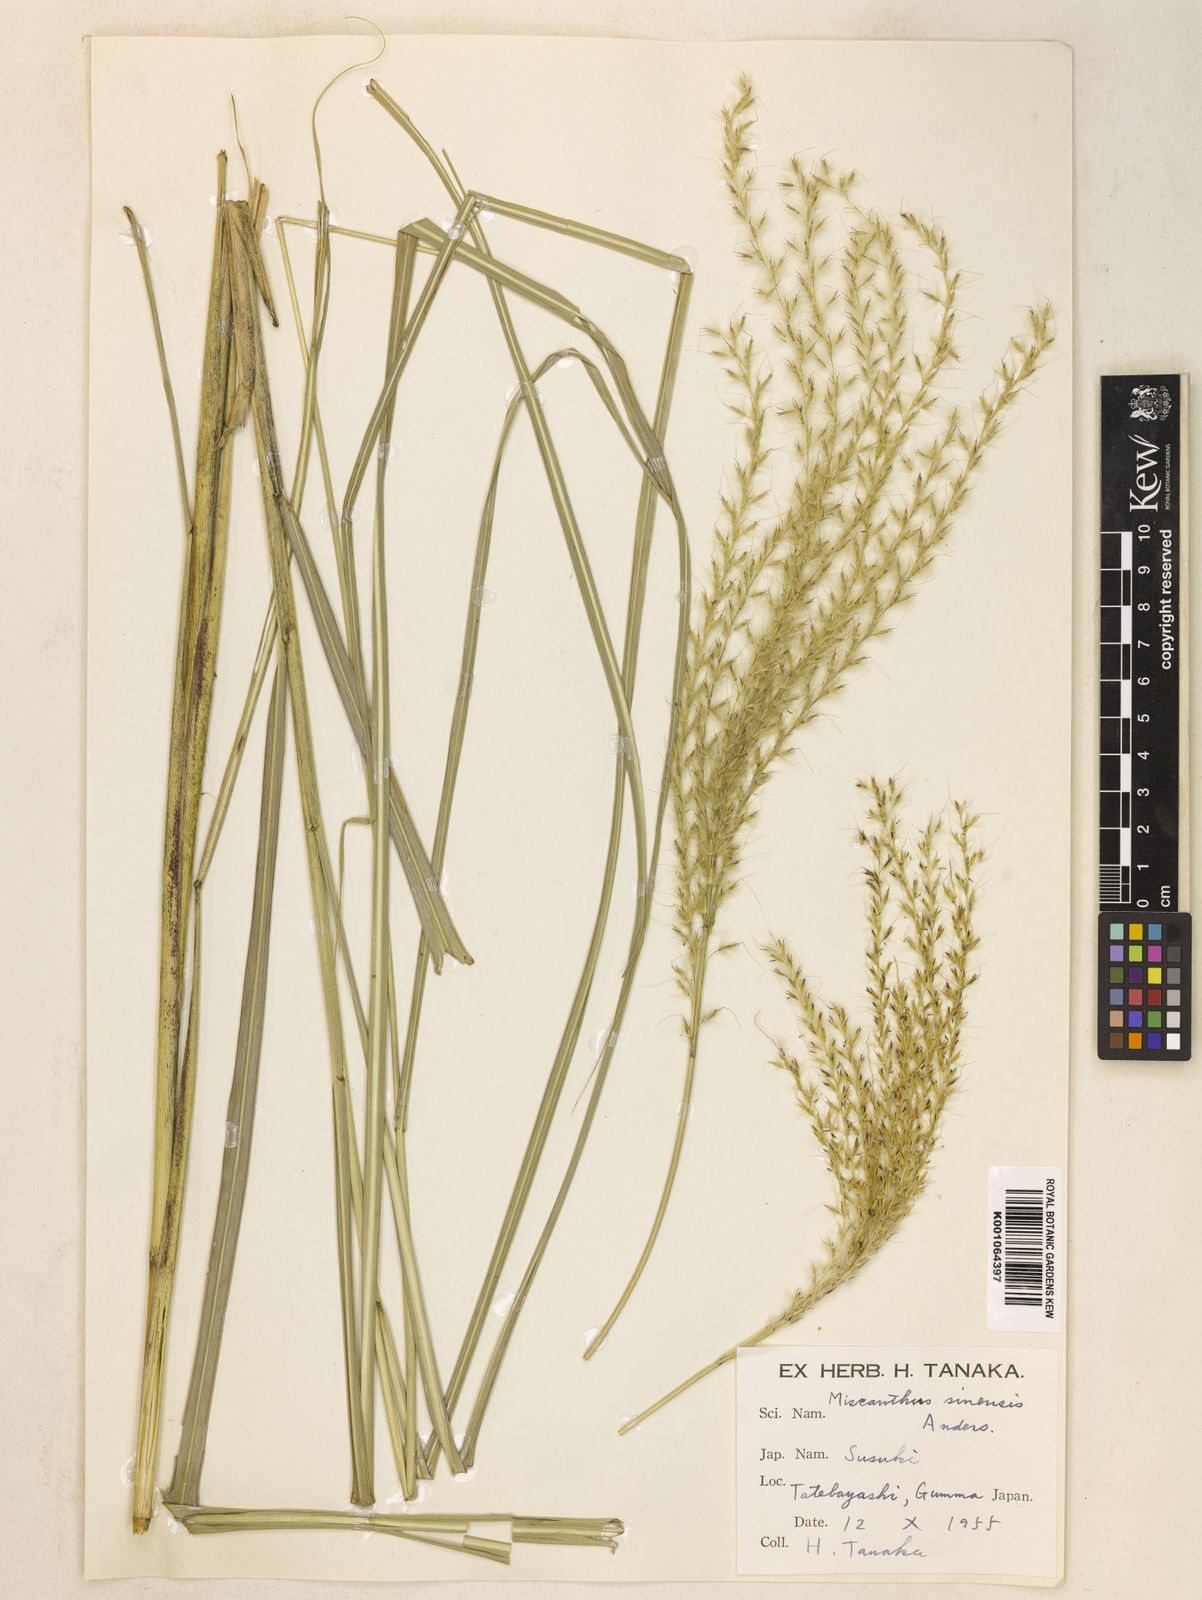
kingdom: Plantae
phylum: Tracheophyta
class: Liliopsida
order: Poales
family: Poaceae
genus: Miscanthus
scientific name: Miscanthus sinensis
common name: Chinese silvergrass
